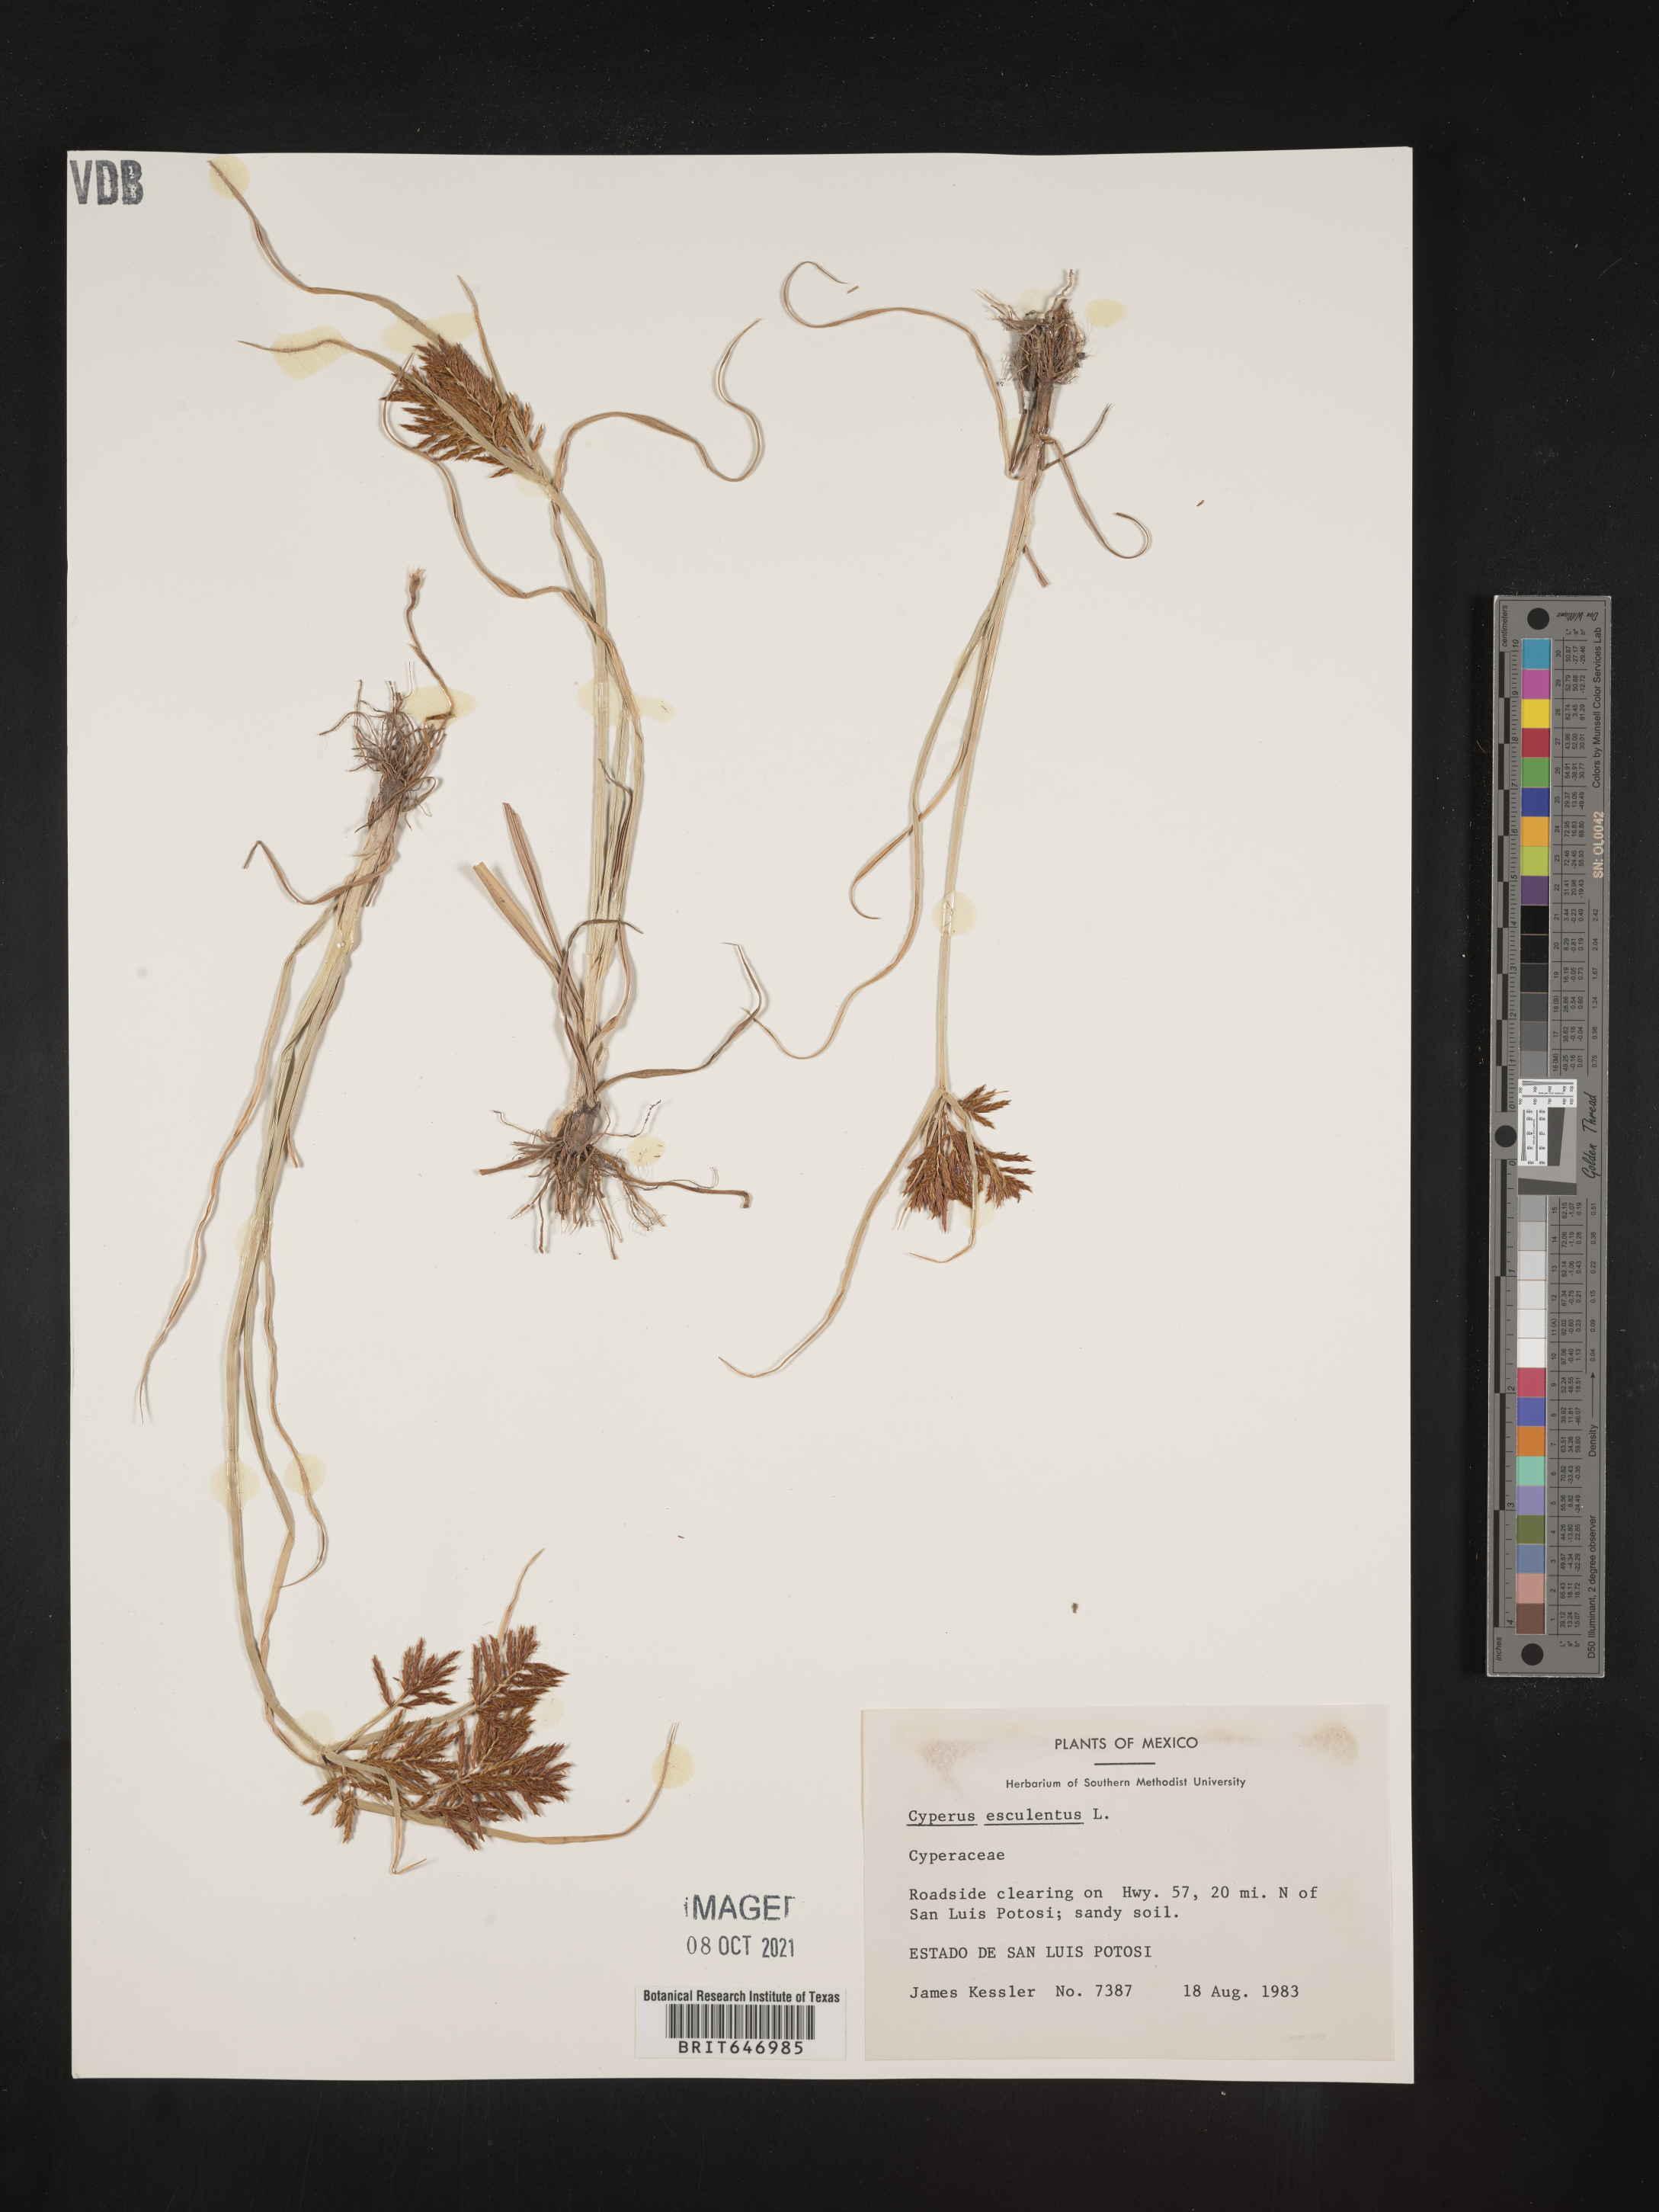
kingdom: Plantae
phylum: Tracheophyta
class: Liliopsida
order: Poales
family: Cyperaceae
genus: Cyperus
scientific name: Cyperus esculentus
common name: Yellow nutsedge
